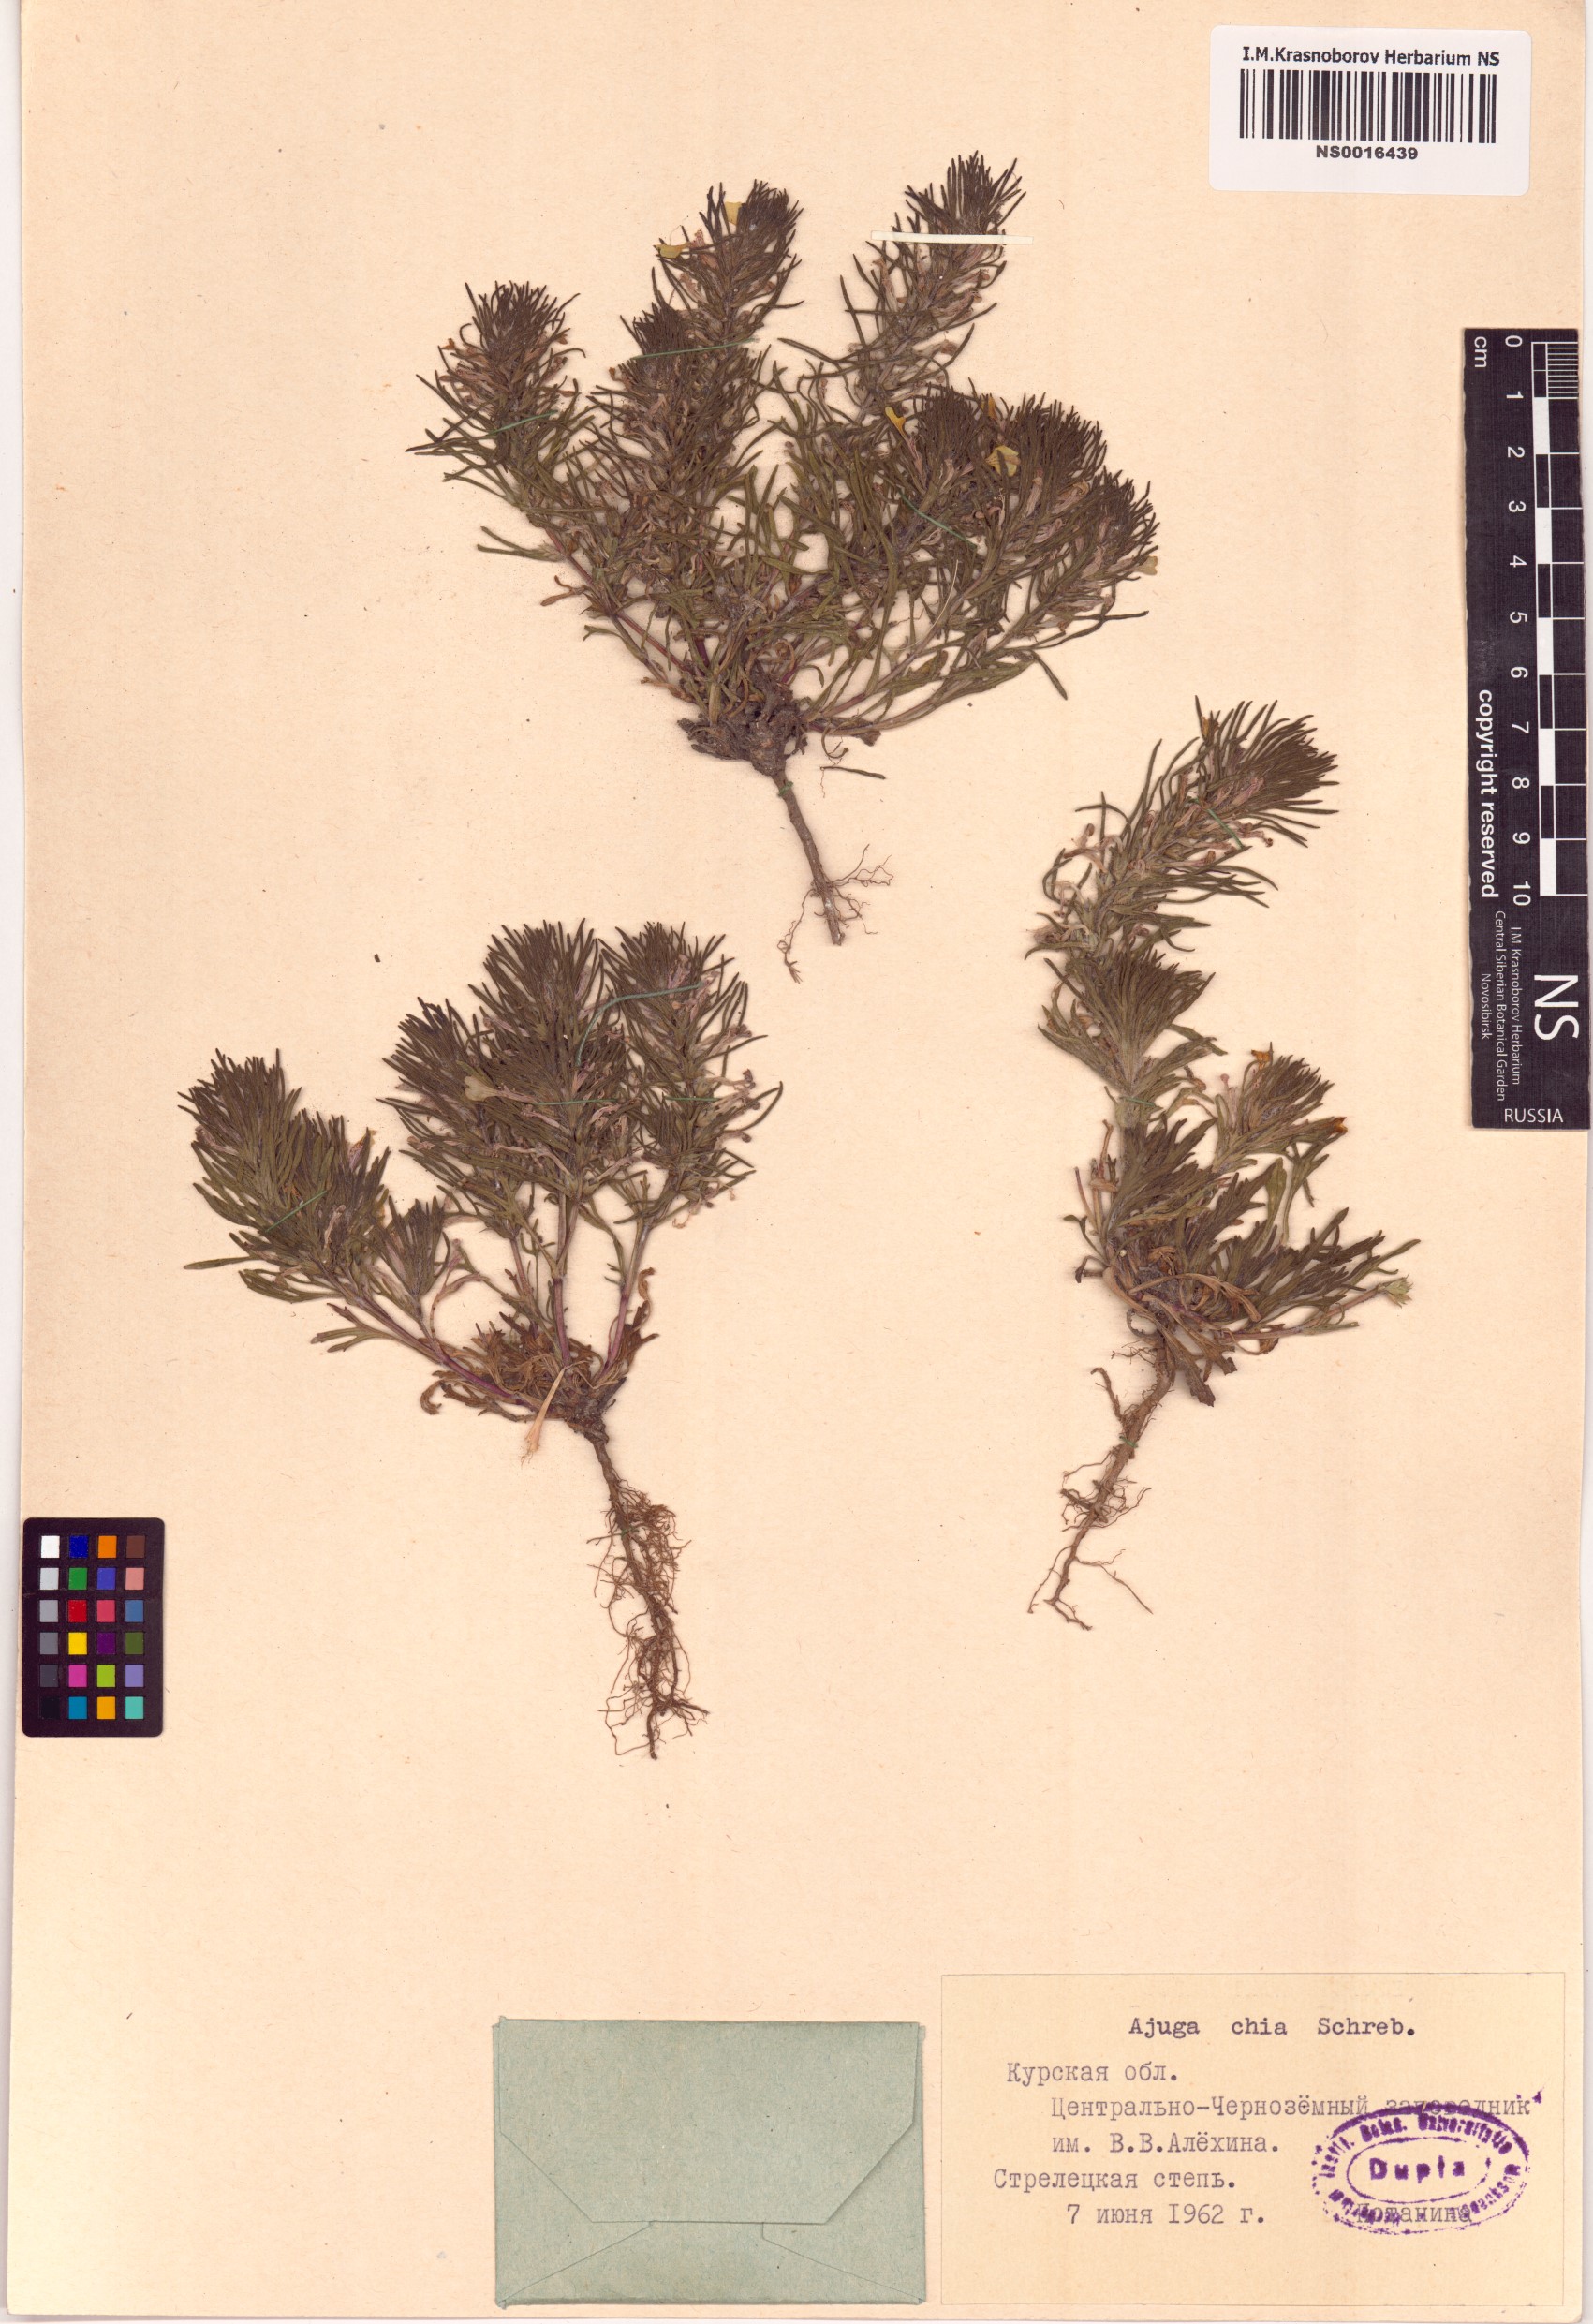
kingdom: Plantae
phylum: Tracheophyta
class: Magnoliopsida
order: Lamiales
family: Lamiaceae
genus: Ajuga
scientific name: Ajuga chamaepitys
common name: Ground-pine
